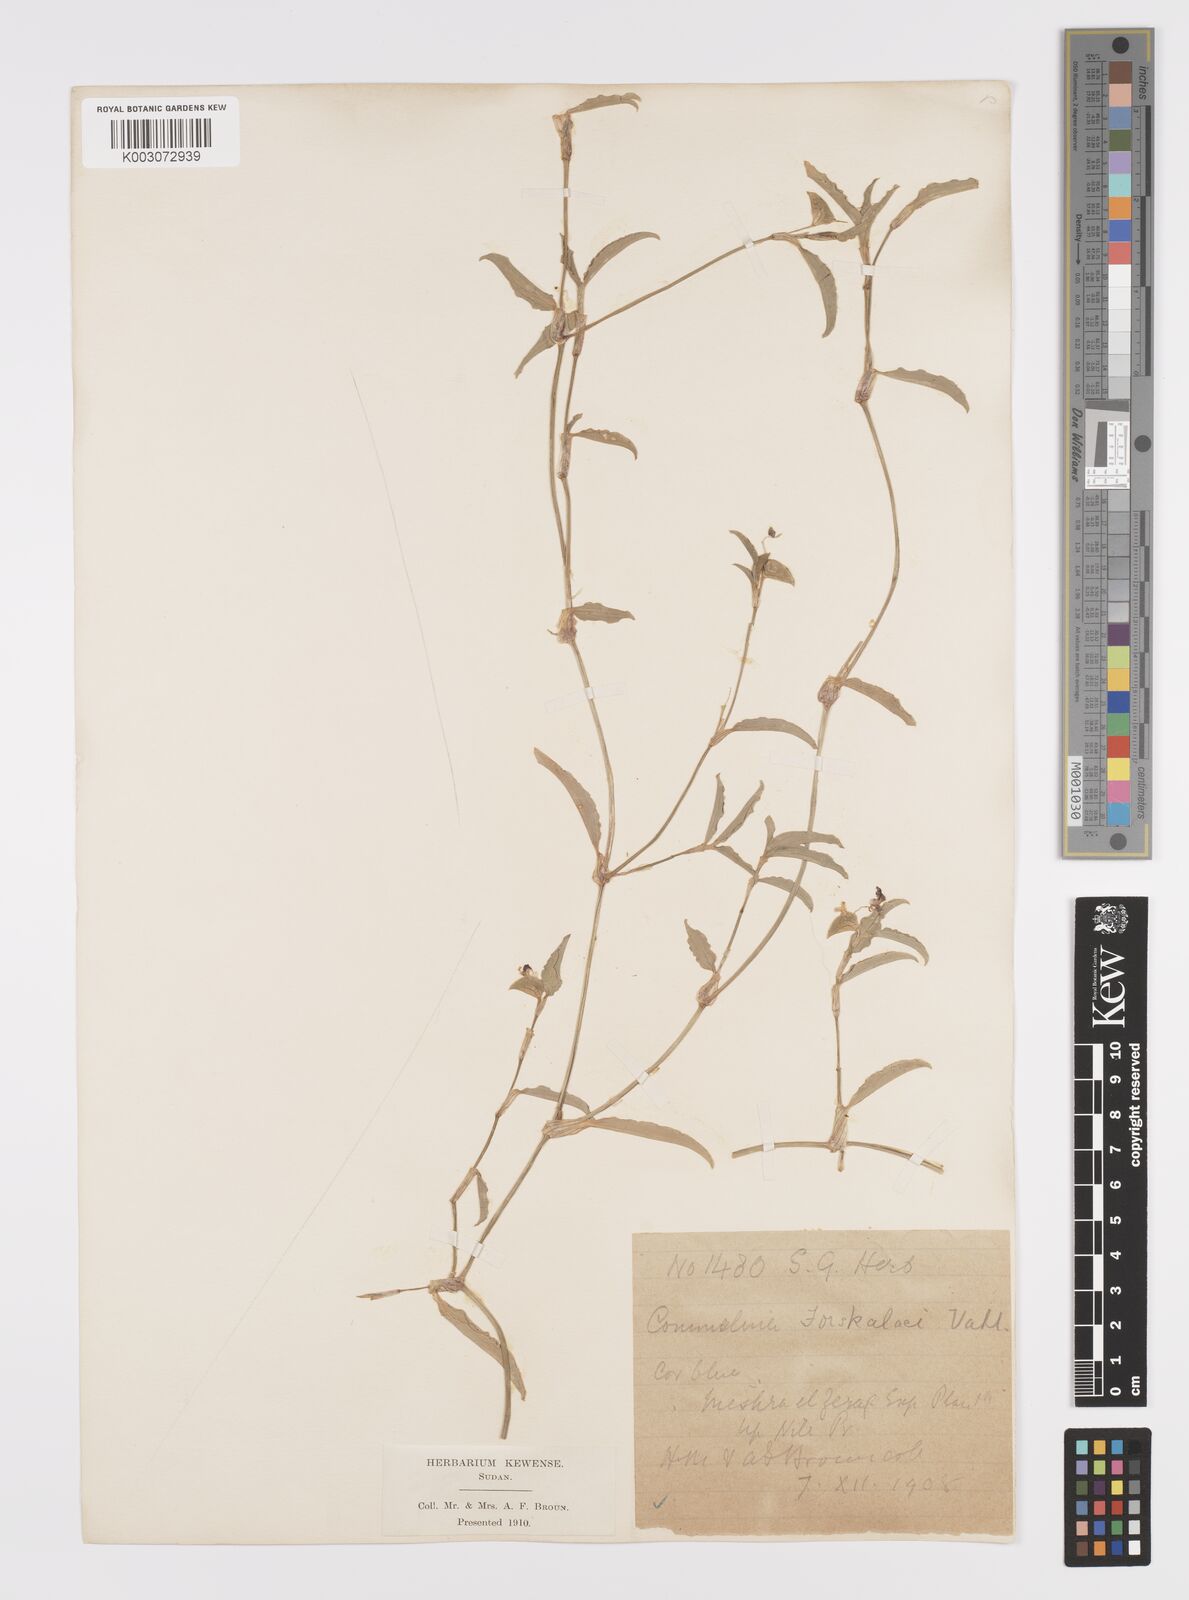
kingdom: Plantae
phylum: Tracheophyta
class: Liliopsida
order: Commelinales
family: Commelinaceae
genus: Commelina
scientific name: Commelina forskaolii
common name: Rat's ear
